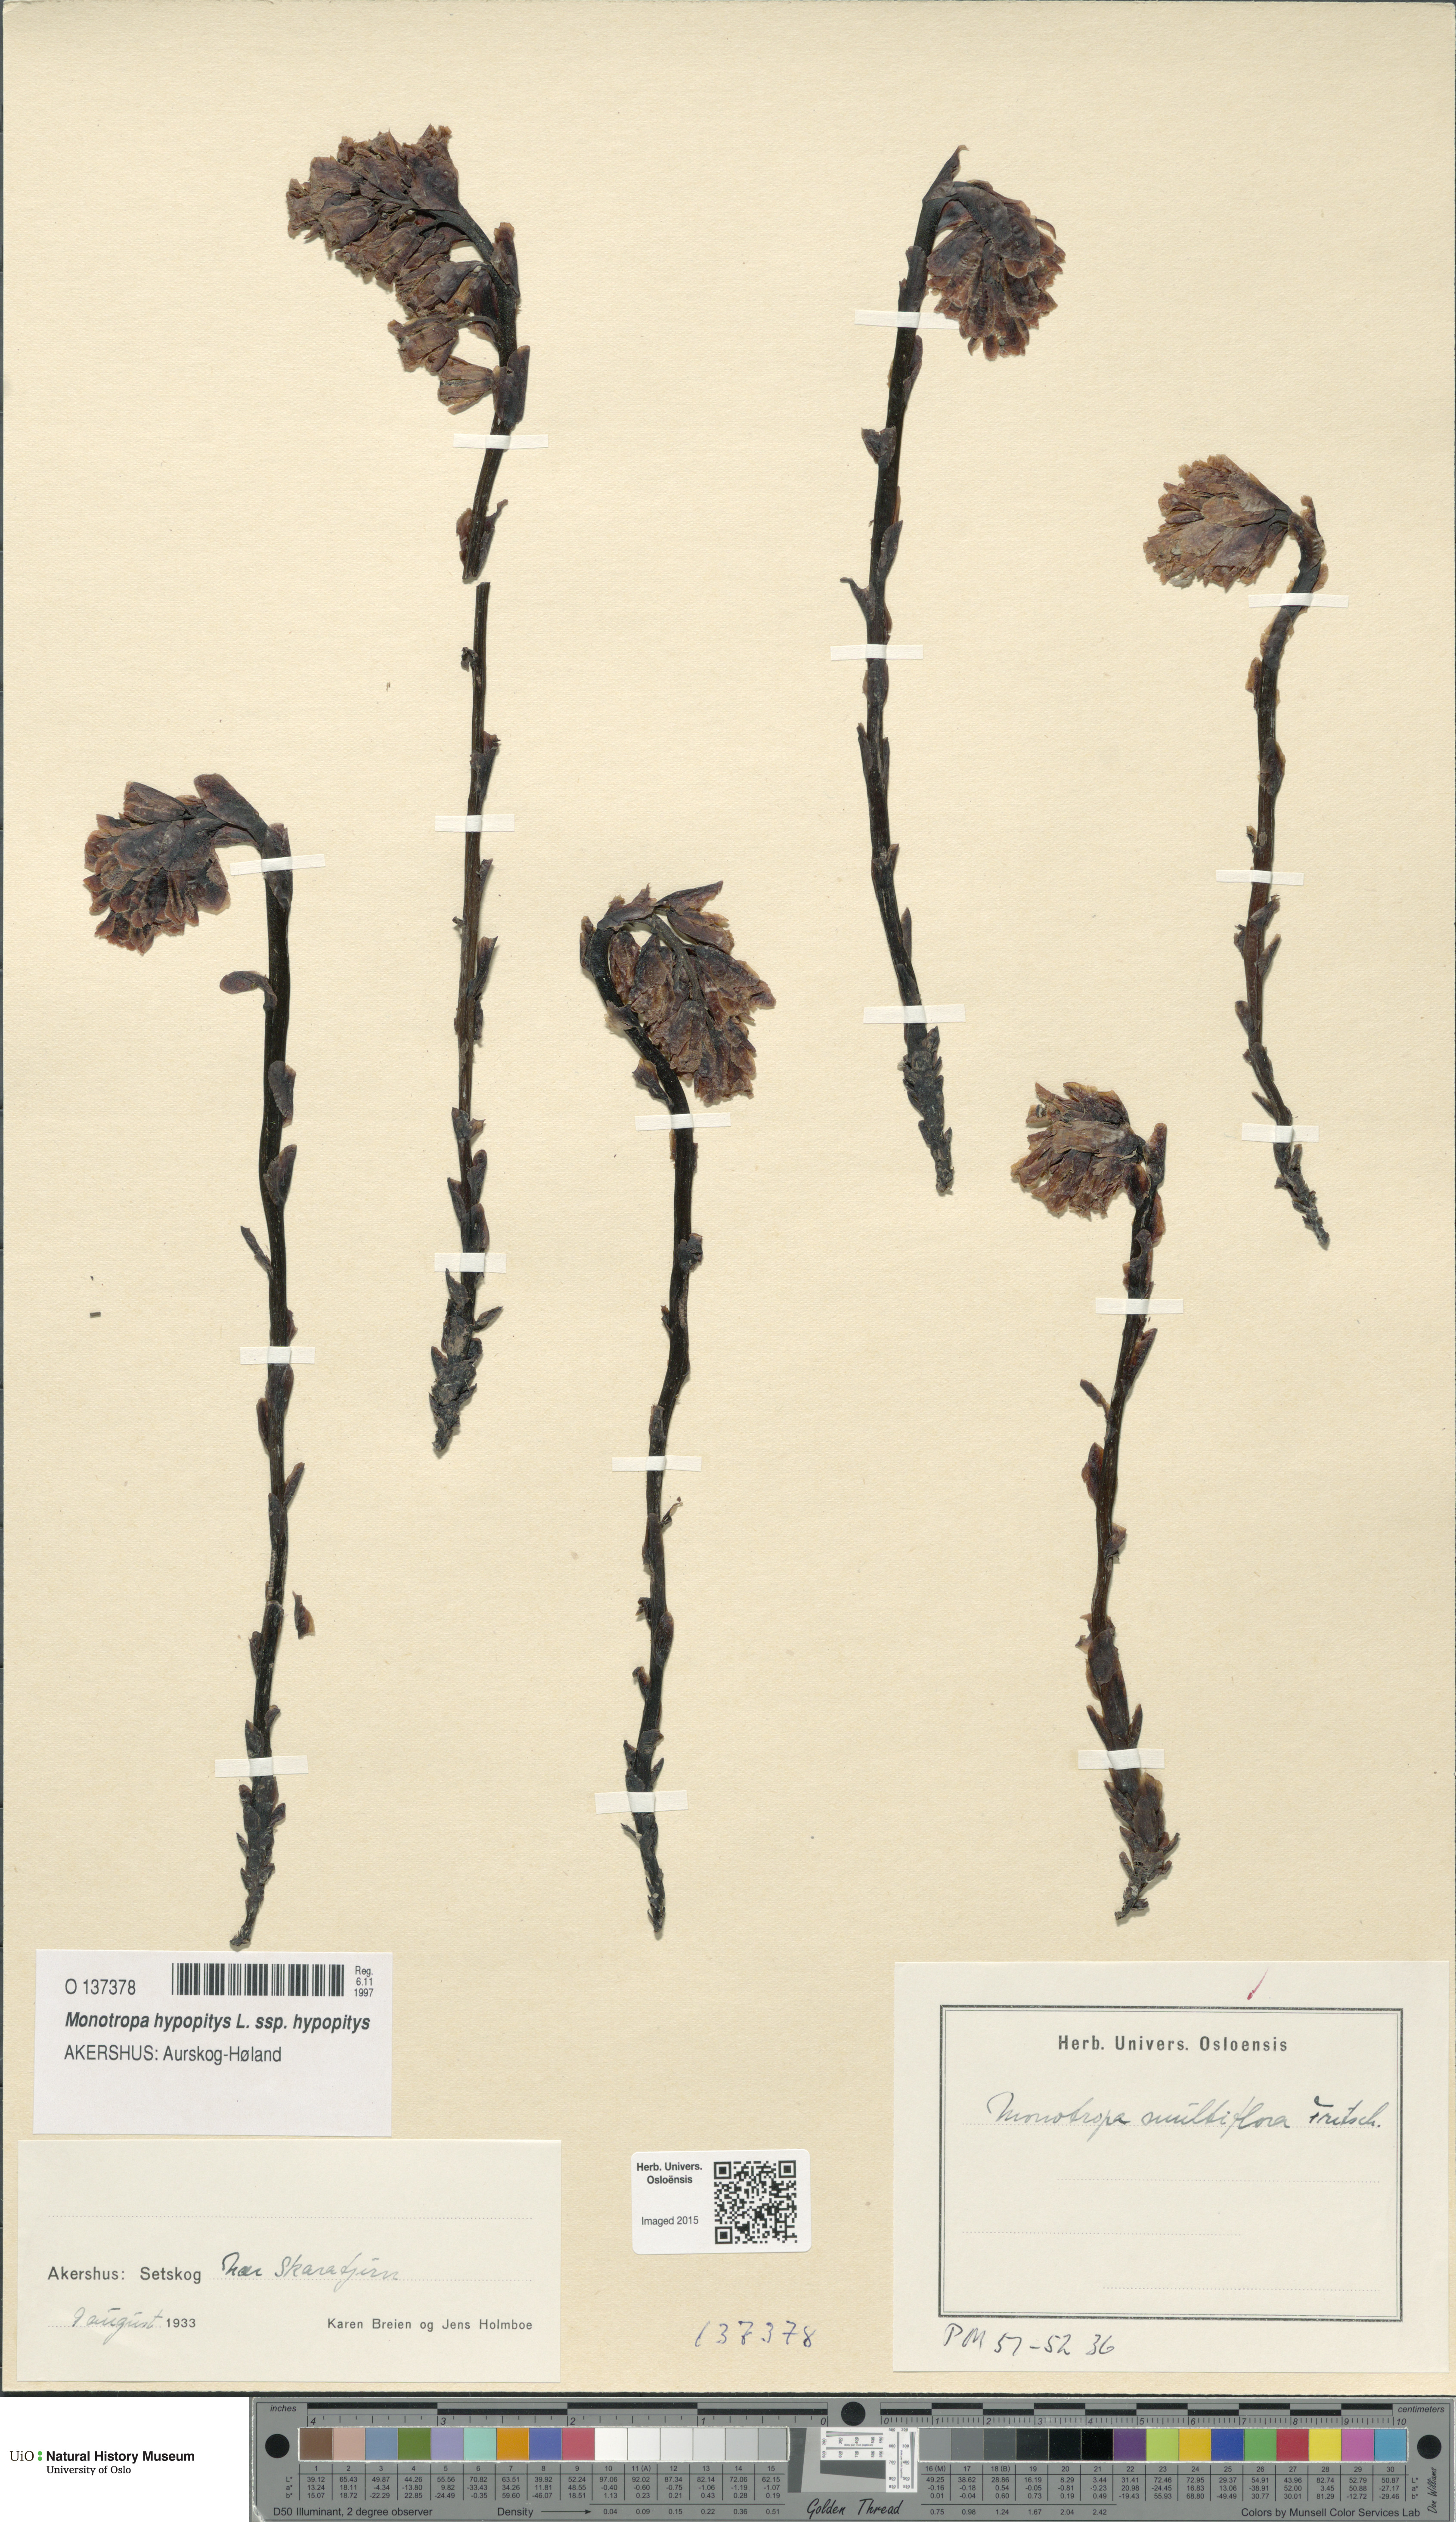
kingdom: Plantae
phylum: Tracheophyta
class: Magnoliopsida
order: Ericales
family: Ericaceae
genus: Hypopitys
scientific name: Hypopitys monotropa
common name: Yellow bird's-nest
